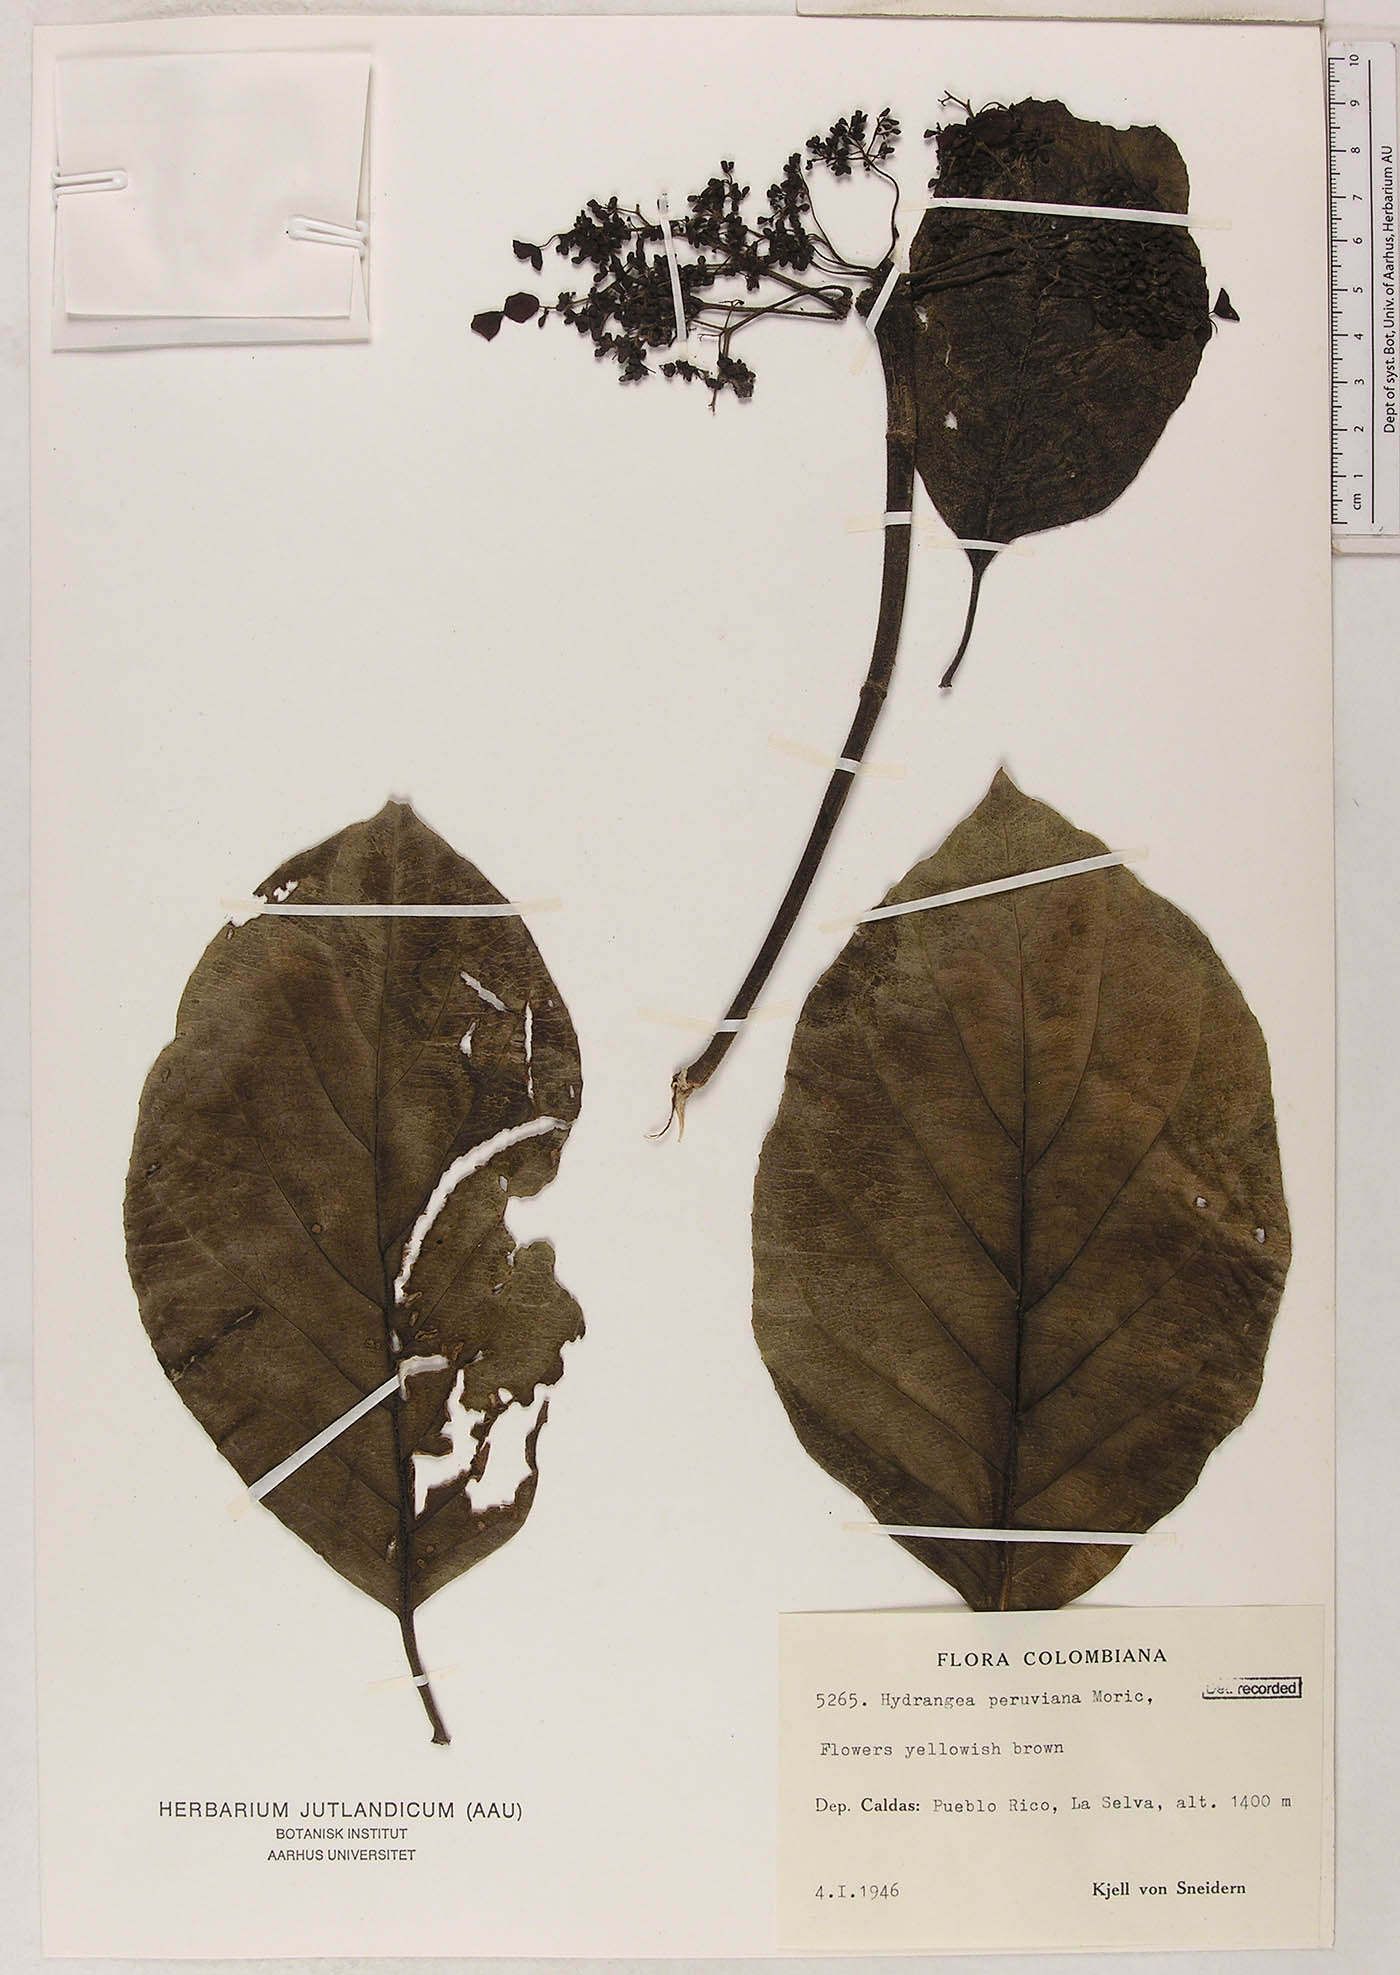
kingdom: Plantae
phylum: Tracheophyta
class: Magnoliopsida
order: Cornales
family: Hydrangeaceae
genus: Hydrangea
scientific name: Hydrangea peruviana
